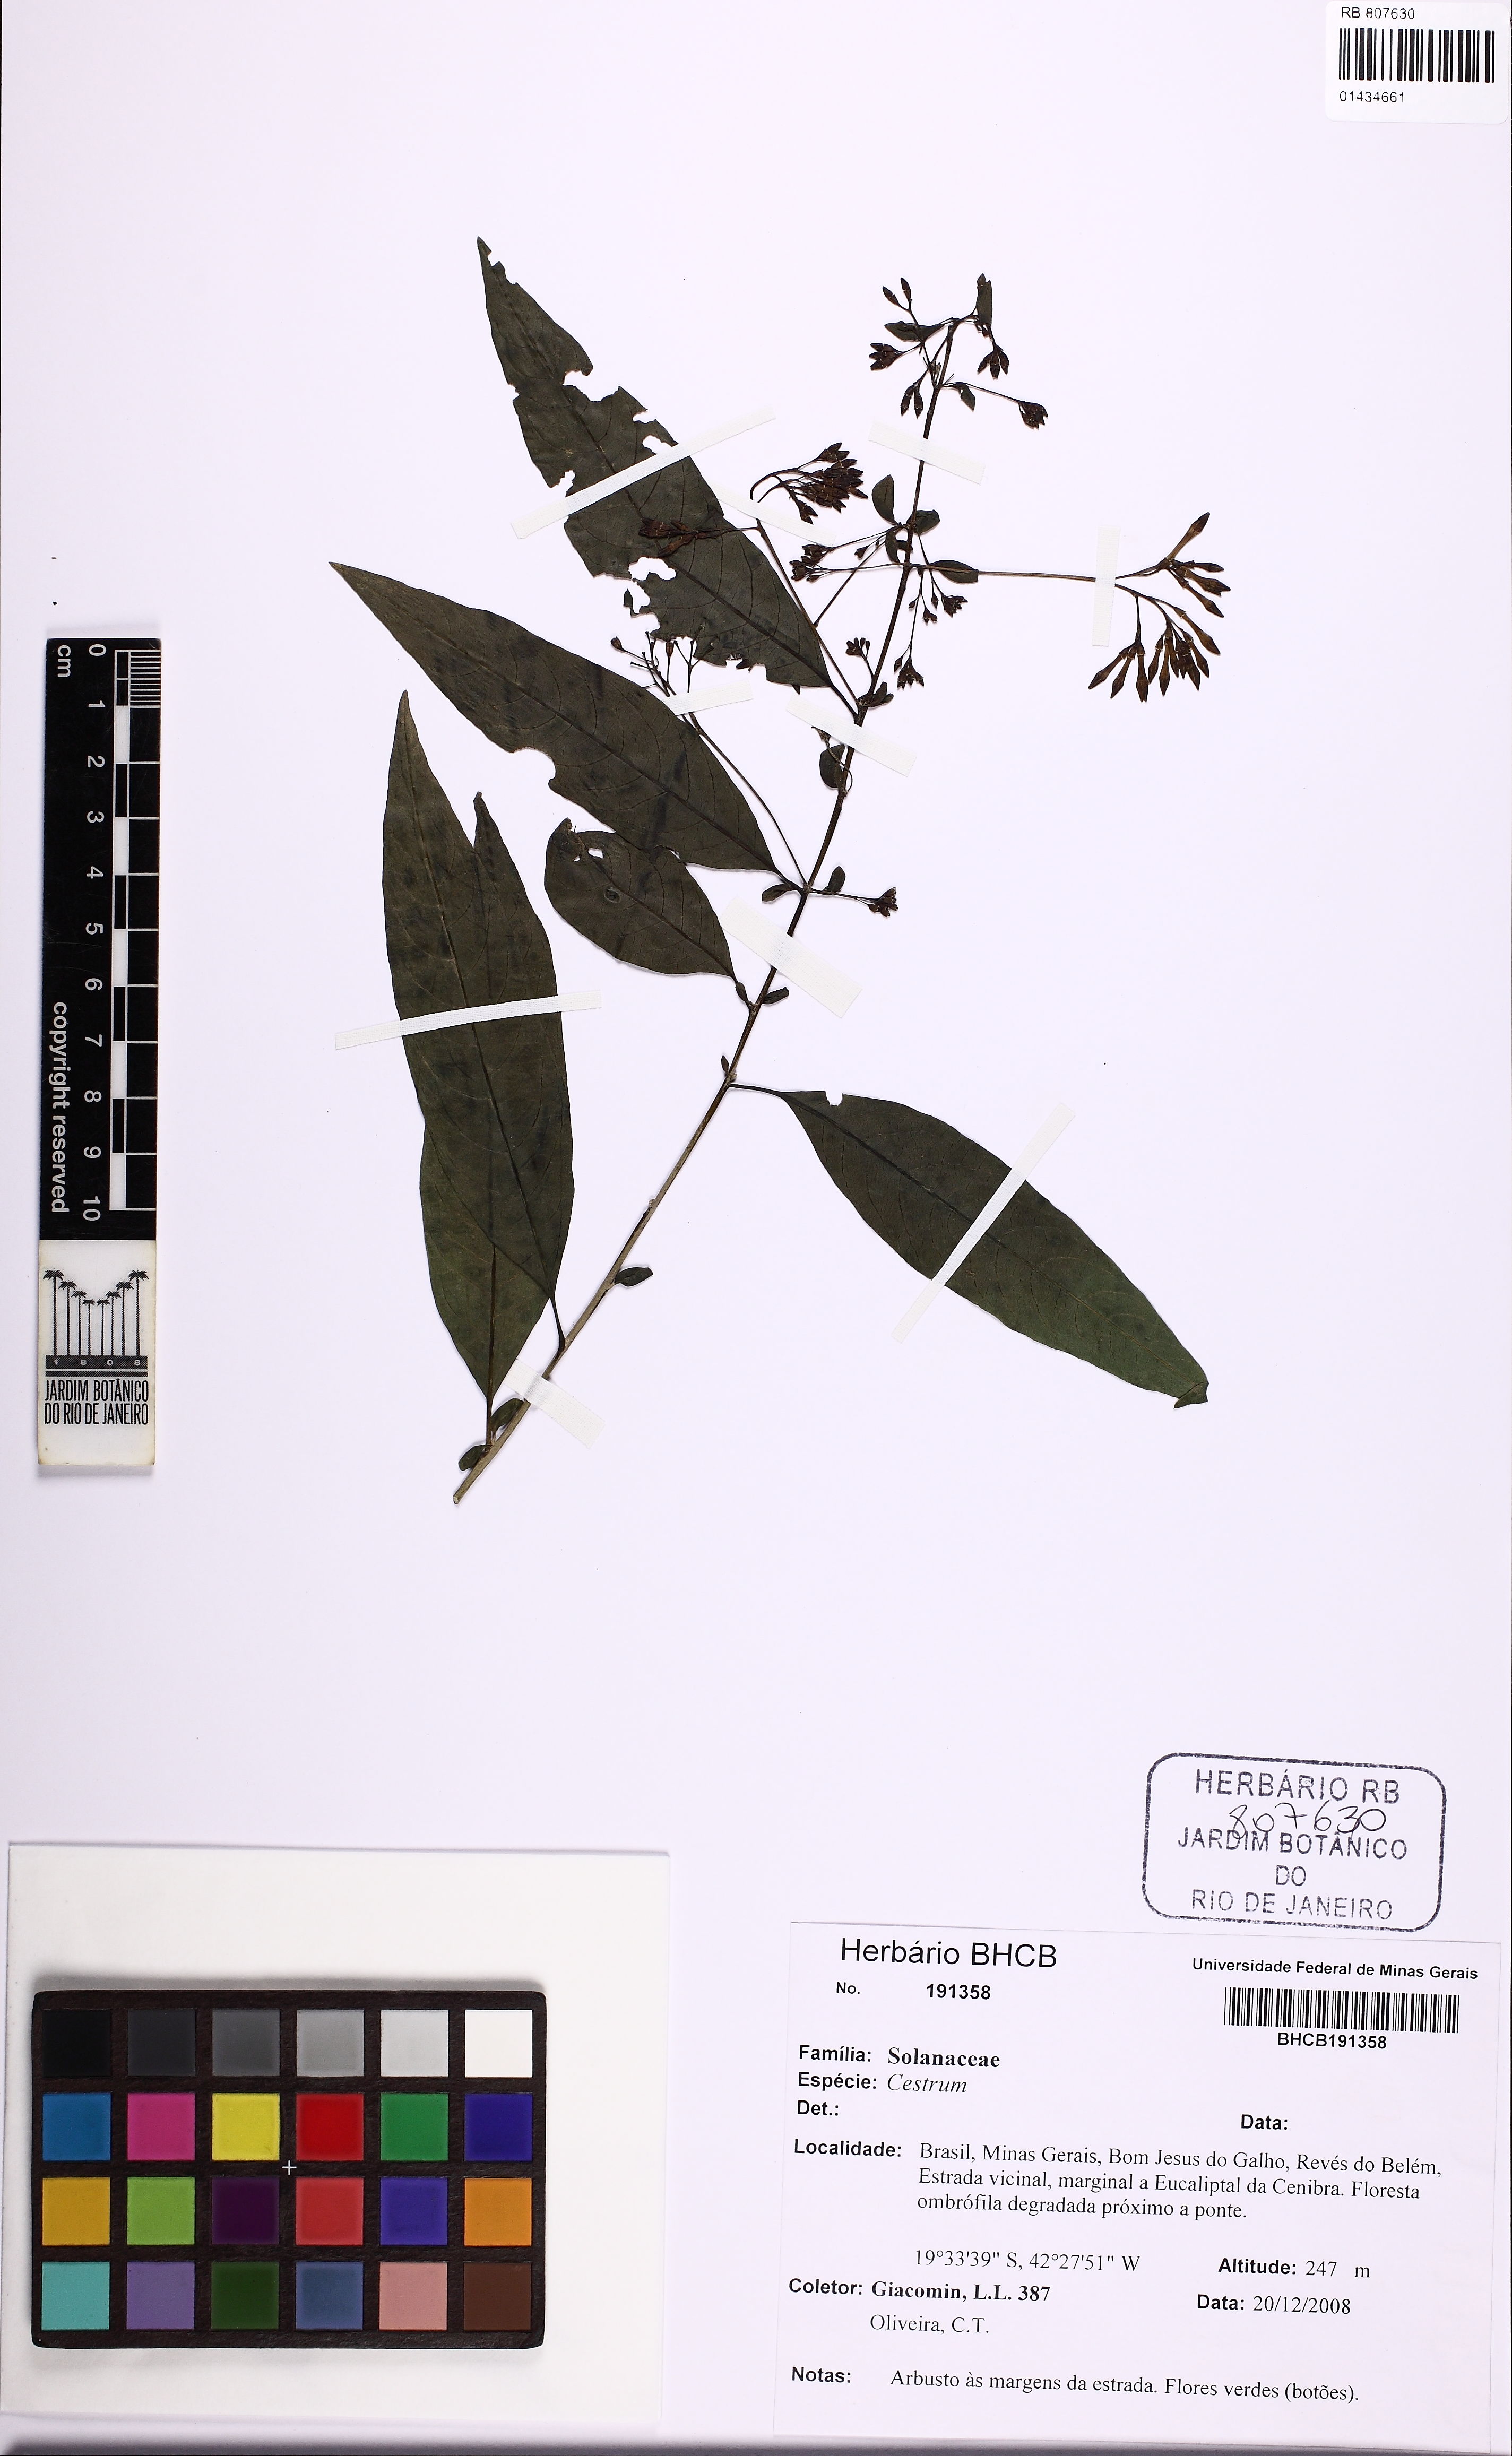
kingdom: Plantae
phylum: Tracheophyta
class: Magnoliopsida
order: Solanales
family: Solanaceae
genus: Cestrum
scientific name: Cestrum
